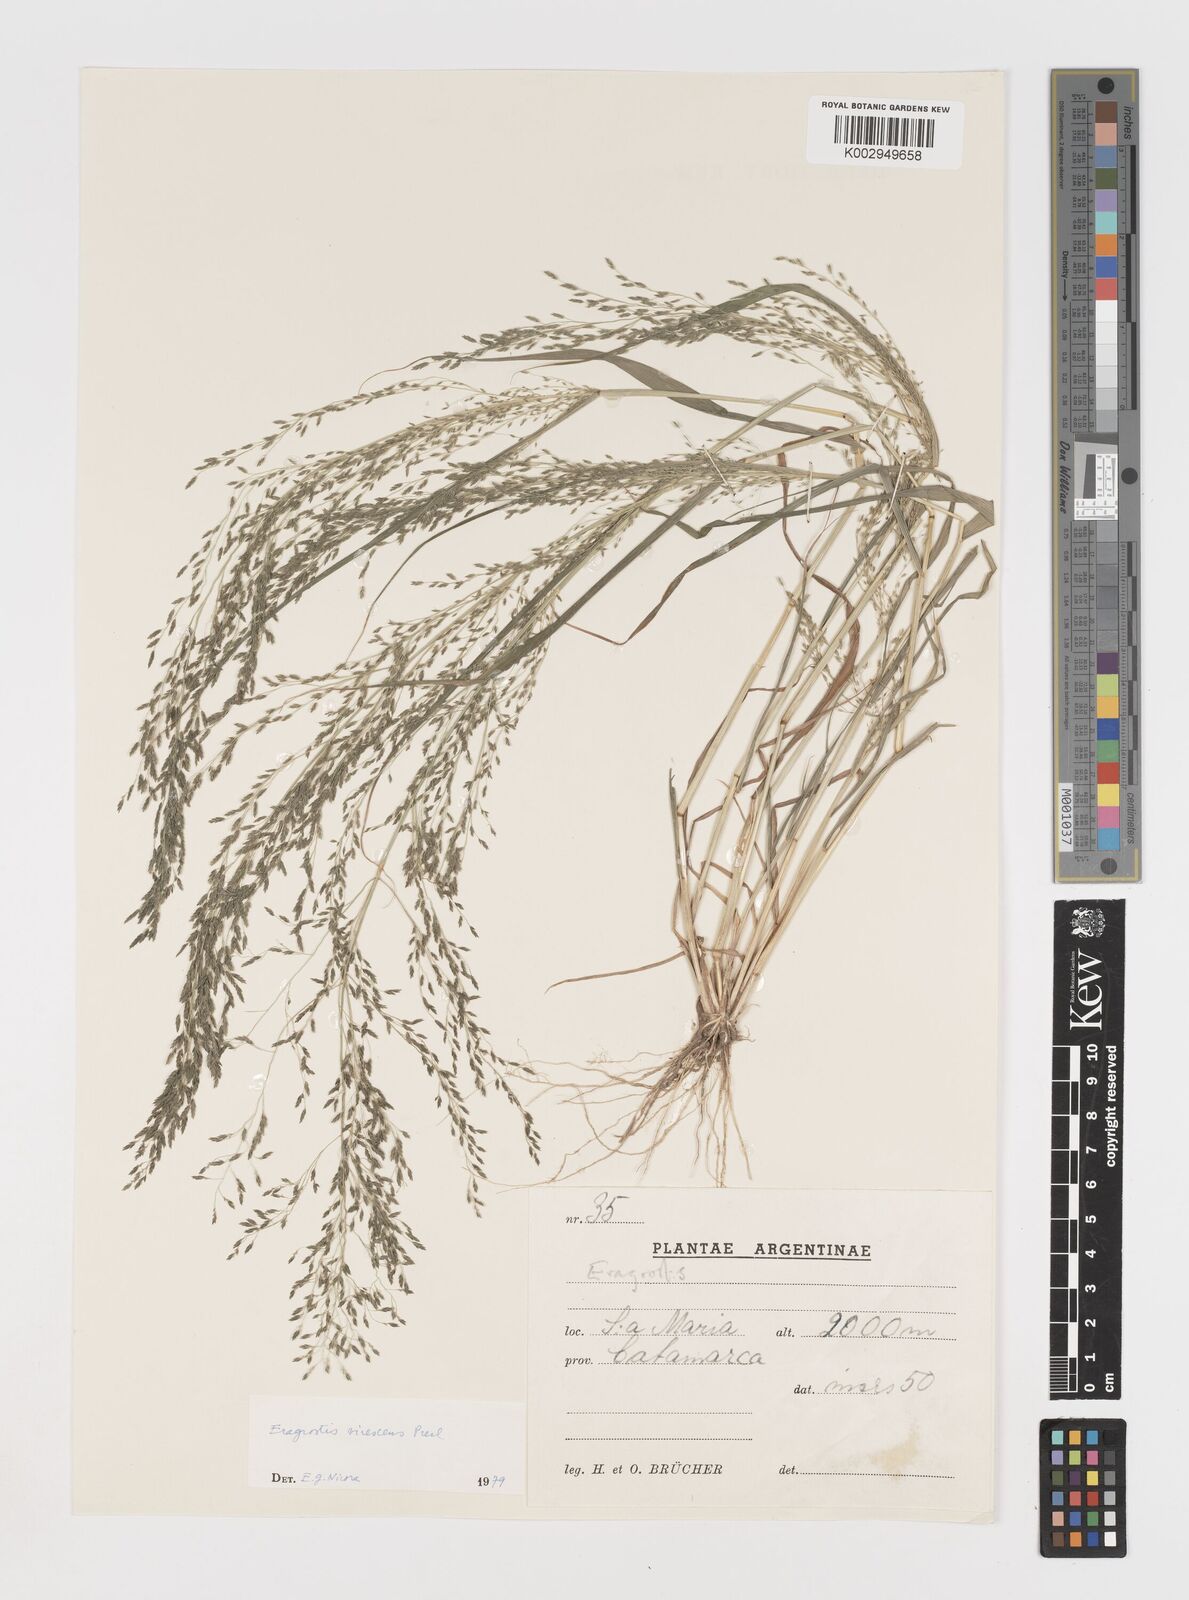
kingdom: Plantae
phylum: Tracheophyta
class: Liliopsida
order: Poales
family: Poaceae
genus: Eragrostis
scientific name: Eragrostis mexicana
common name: Mexican love grass
